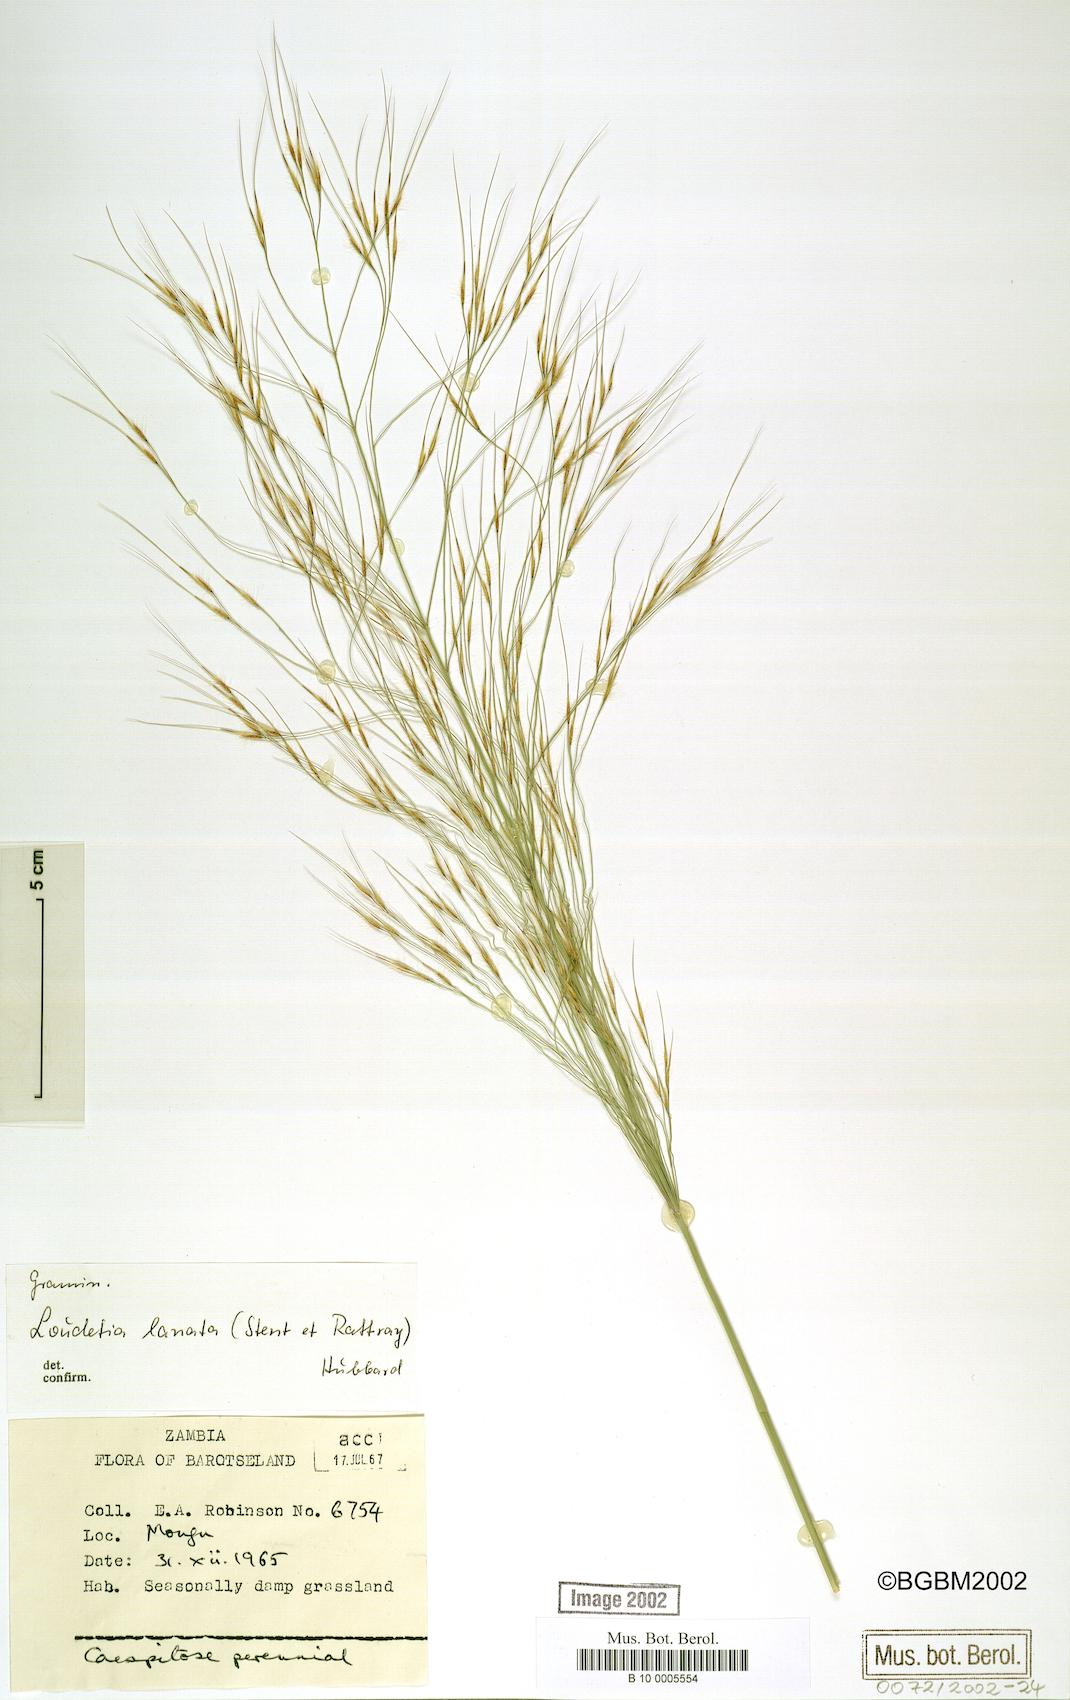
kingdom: Plantae
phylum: Tracheophyta
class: Liliopsida
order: Poales
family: Poaceae
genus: Loudetia
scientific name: Loudetia lanata
